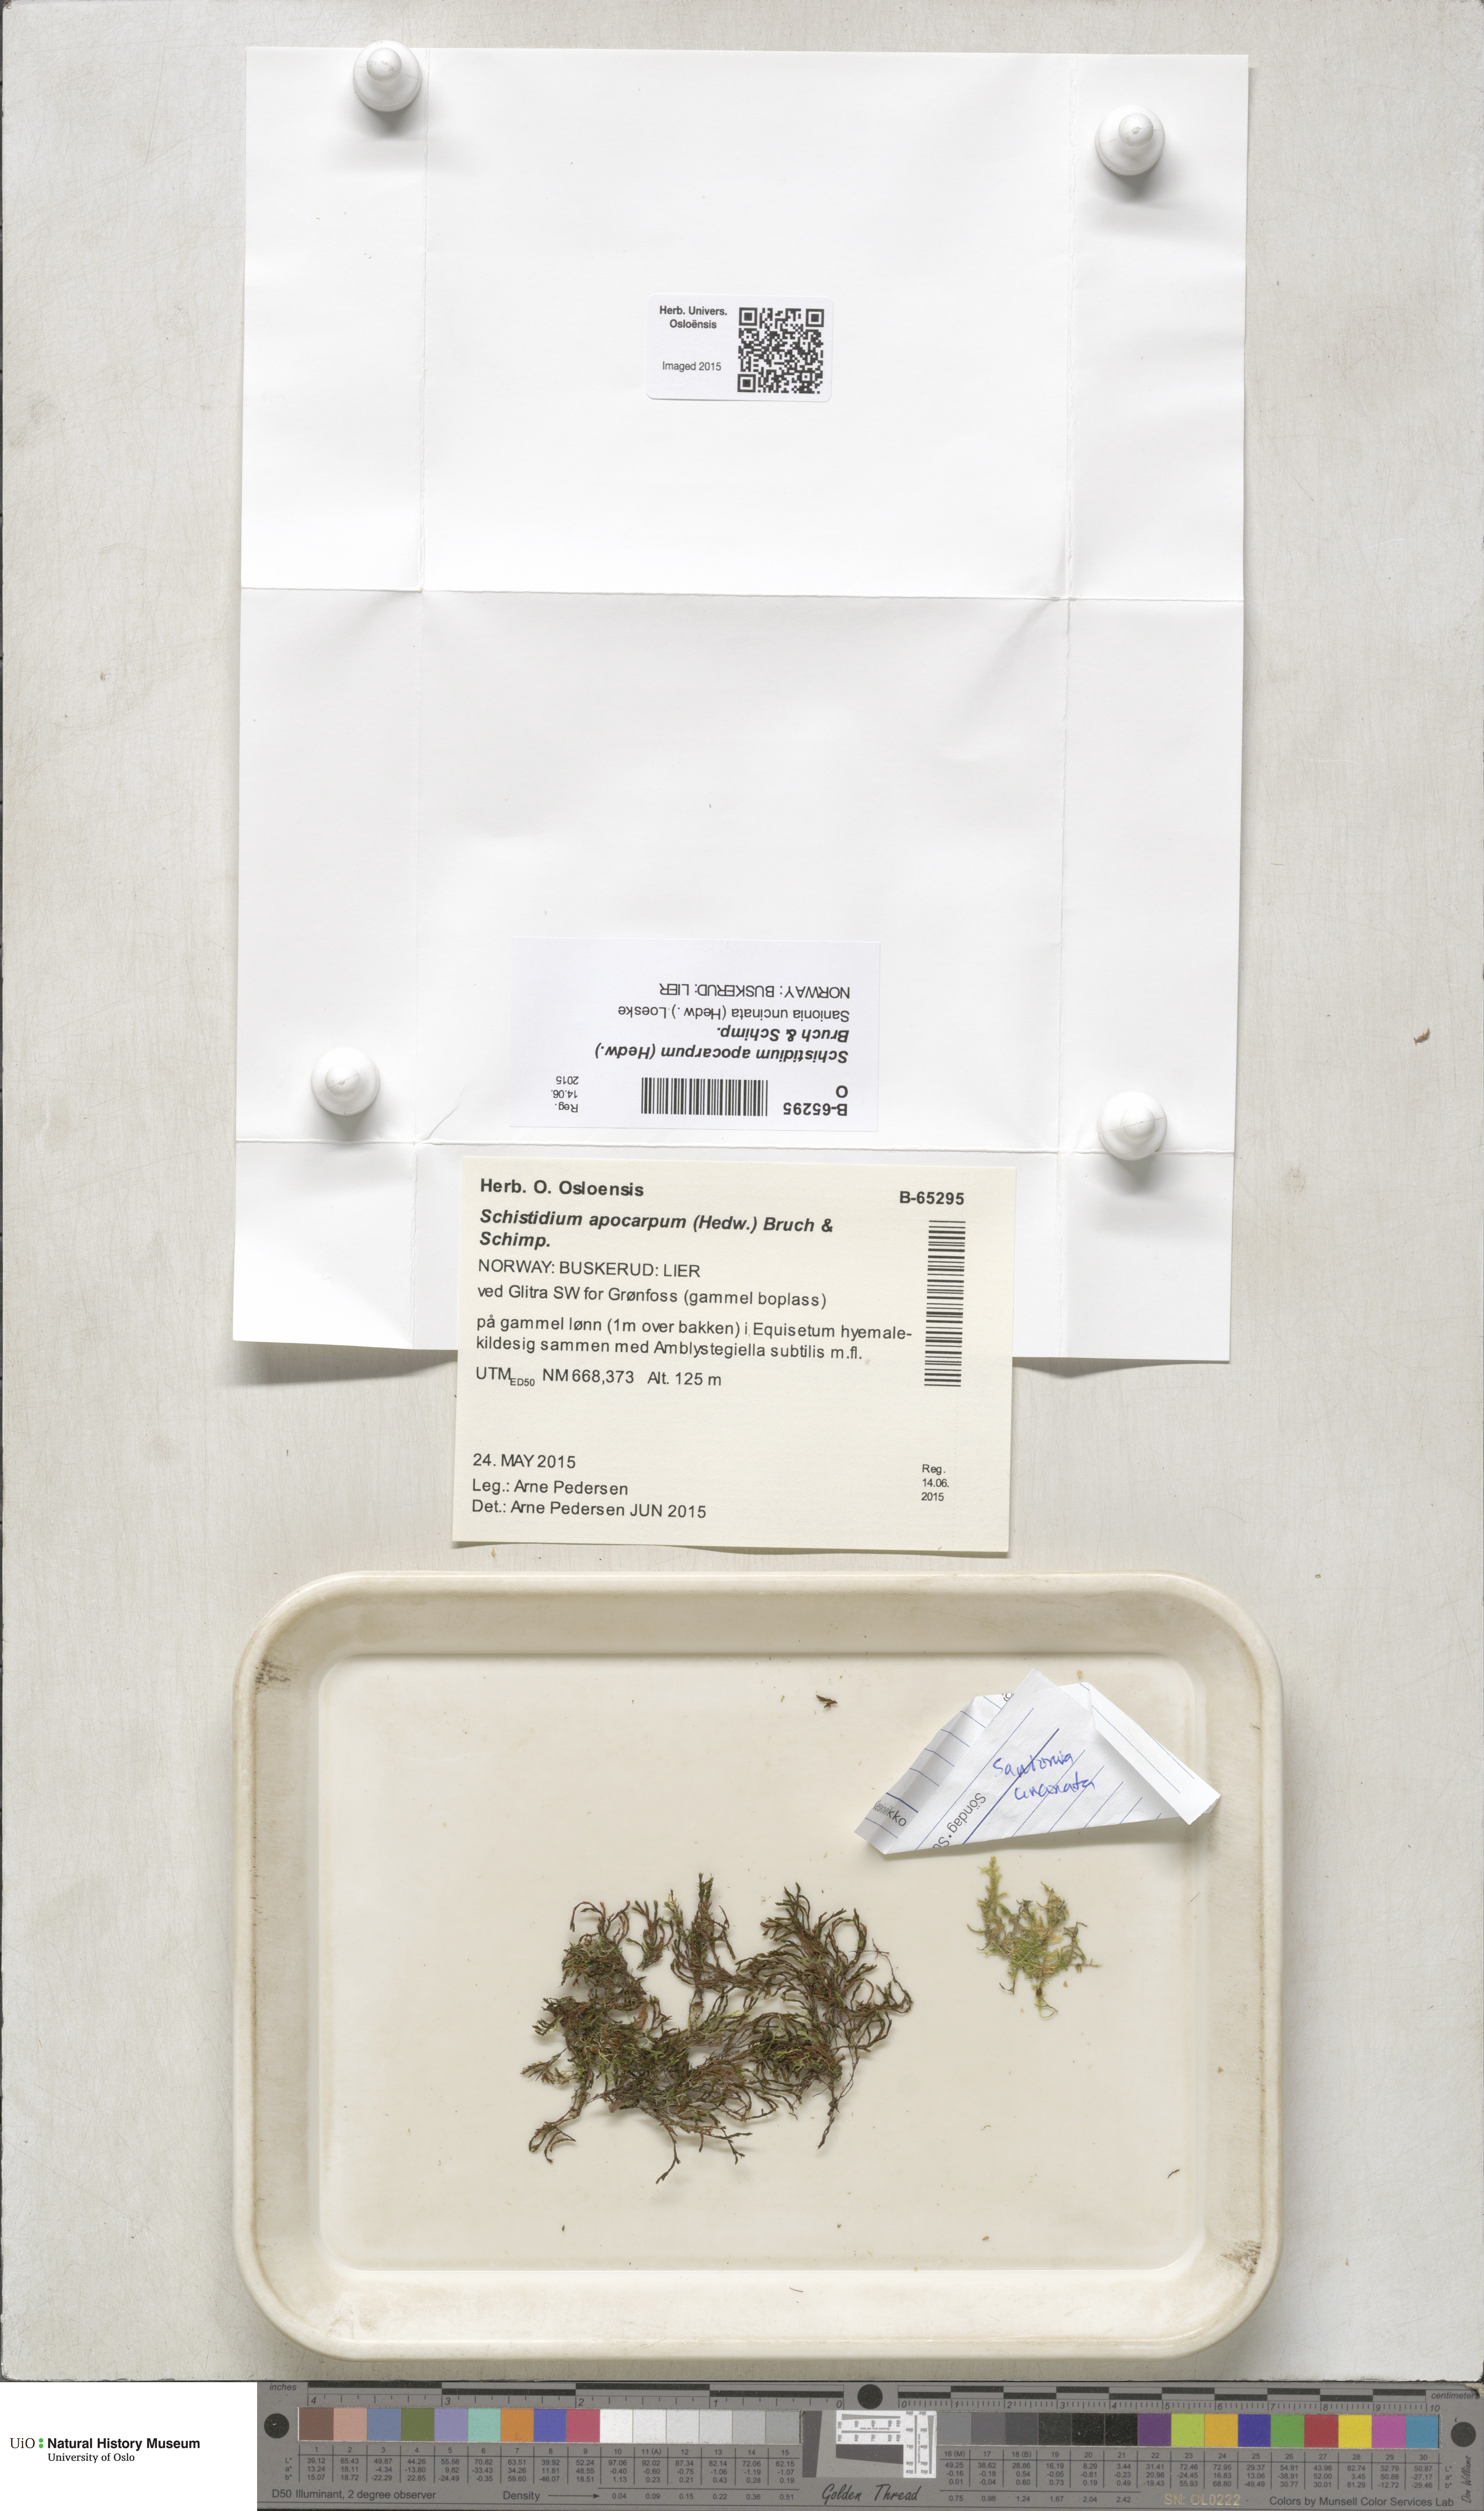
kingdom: Plantae
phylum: Bryophyta
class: Bryopsida
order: Grimmiales
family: Grimmiaceae
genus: Schistidium
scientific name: Schistidium apocarpum
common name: Radiate bloom moss
